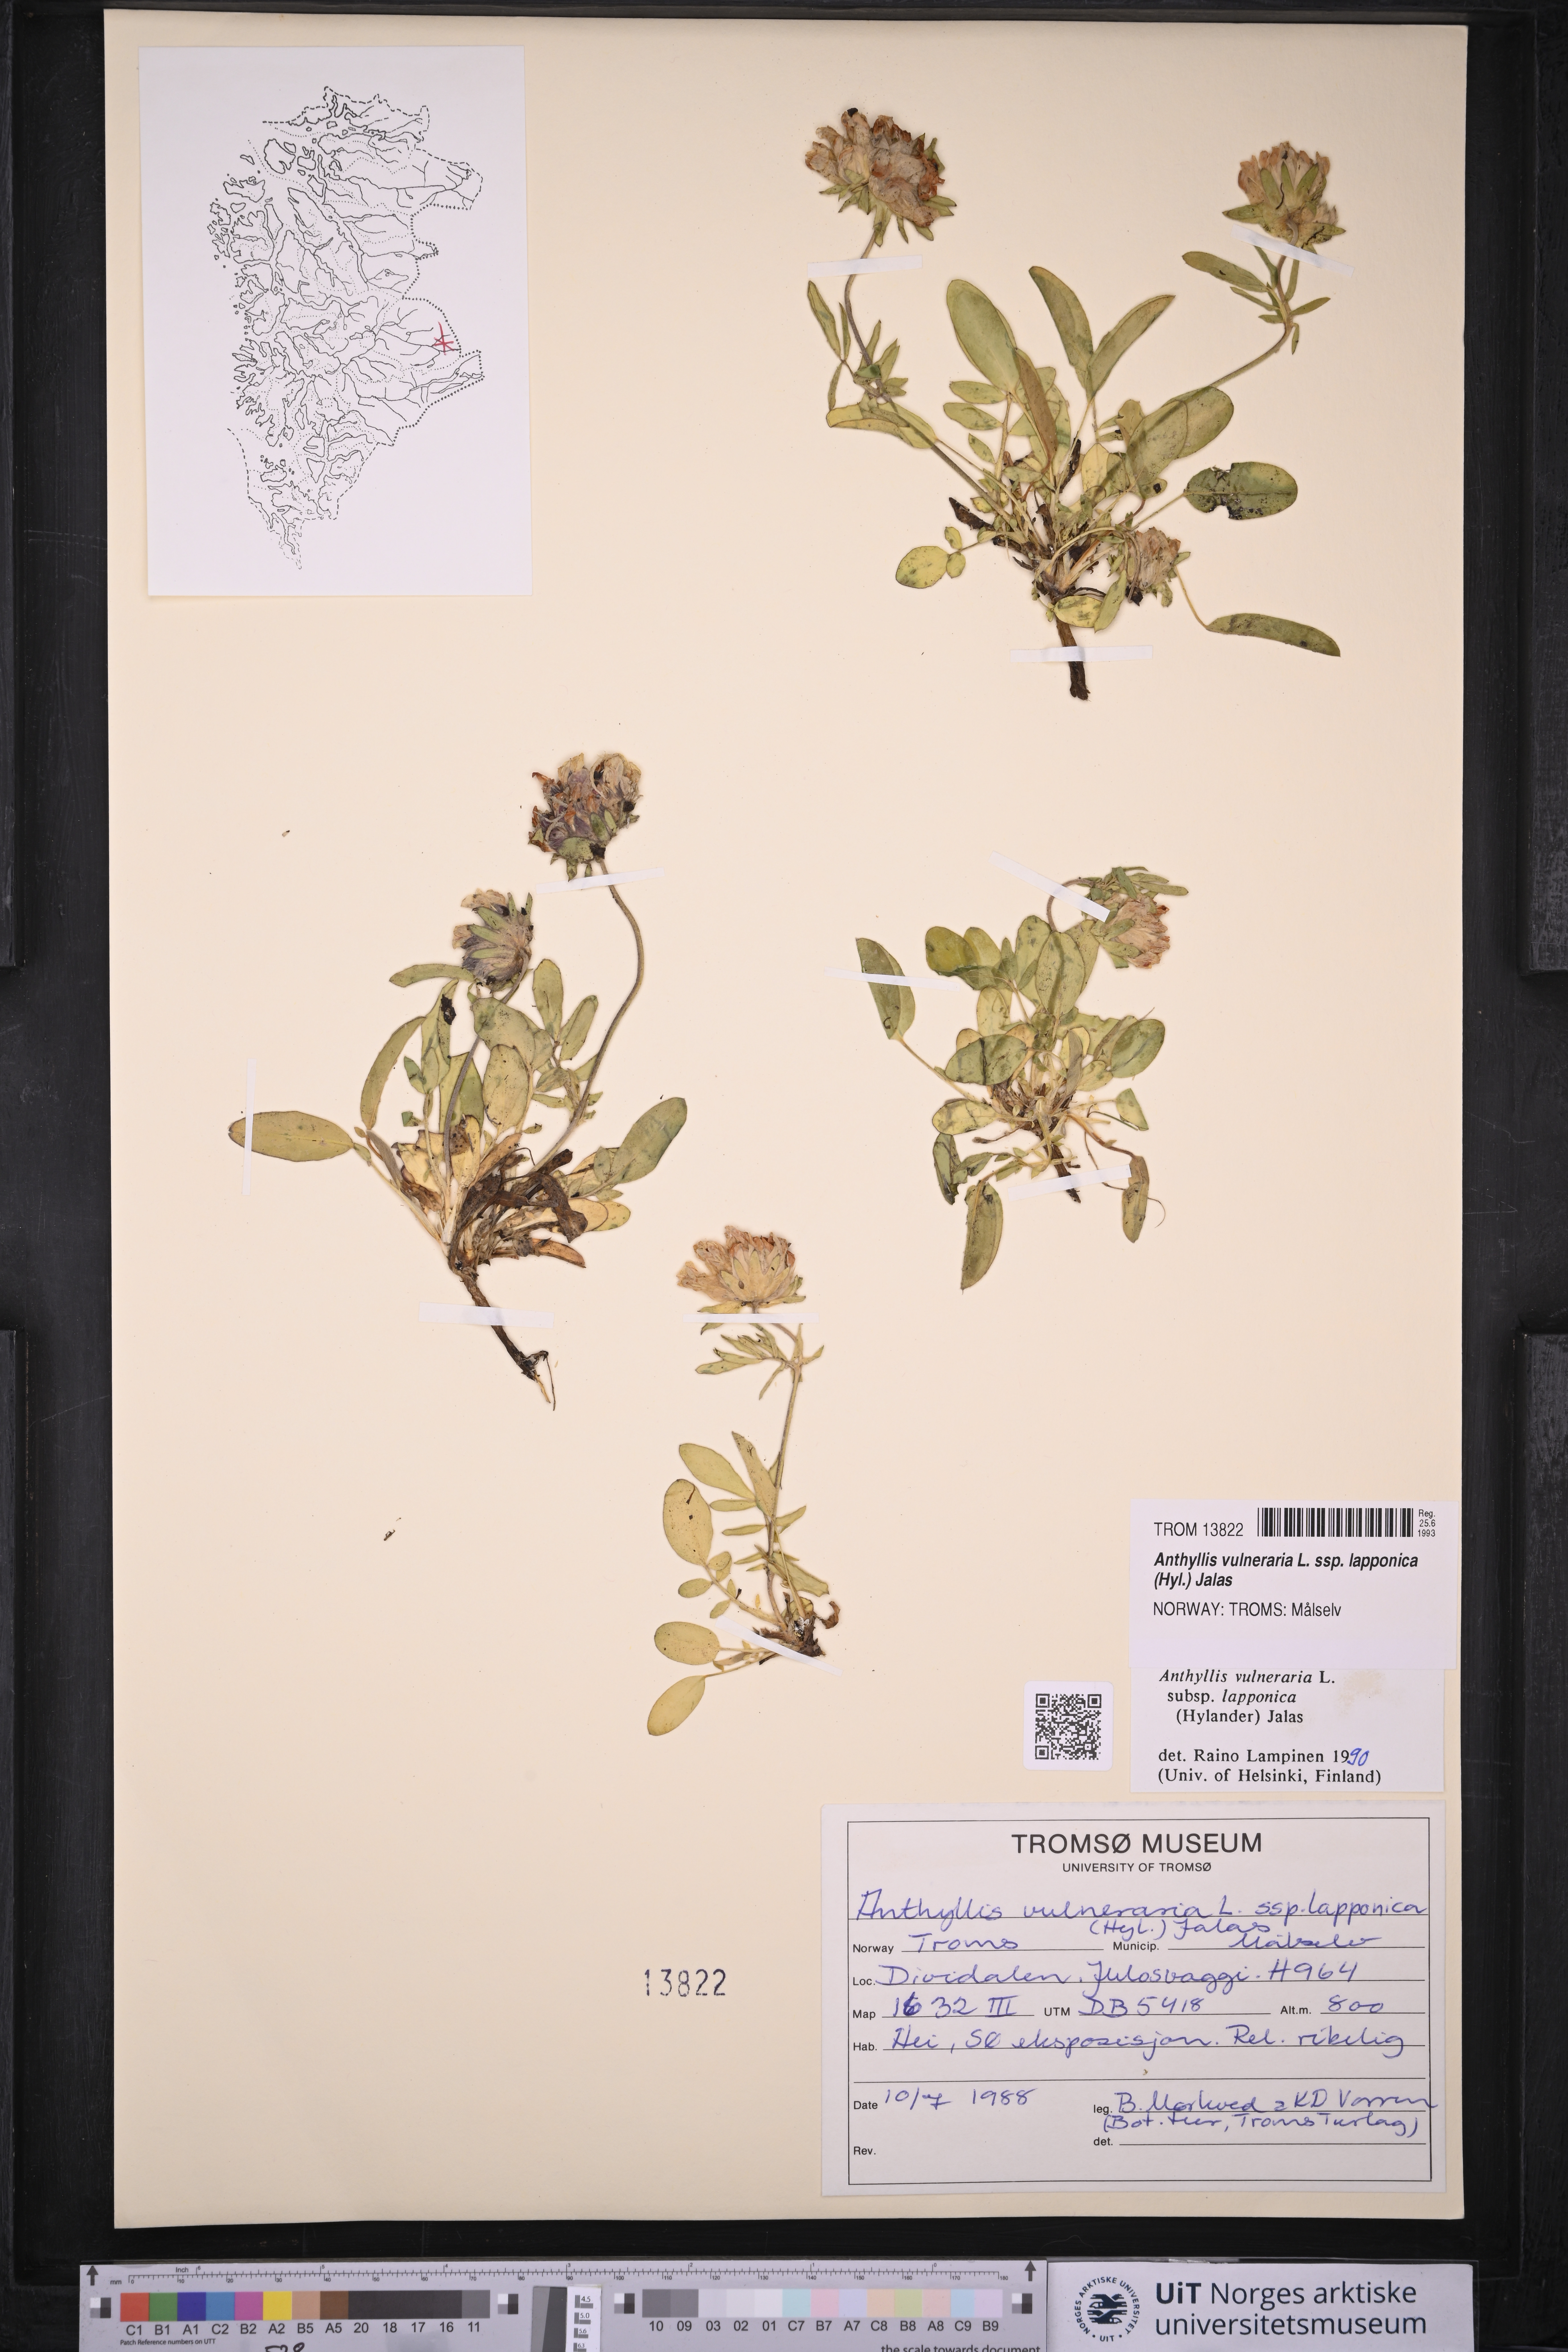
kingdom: Plantae
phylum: Tracheophyta
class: Magnoliopsida
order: Fabales
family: Fabaceae
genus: Anthyllis
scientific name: Anthyllis vulneraria
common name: Kidney vetch
